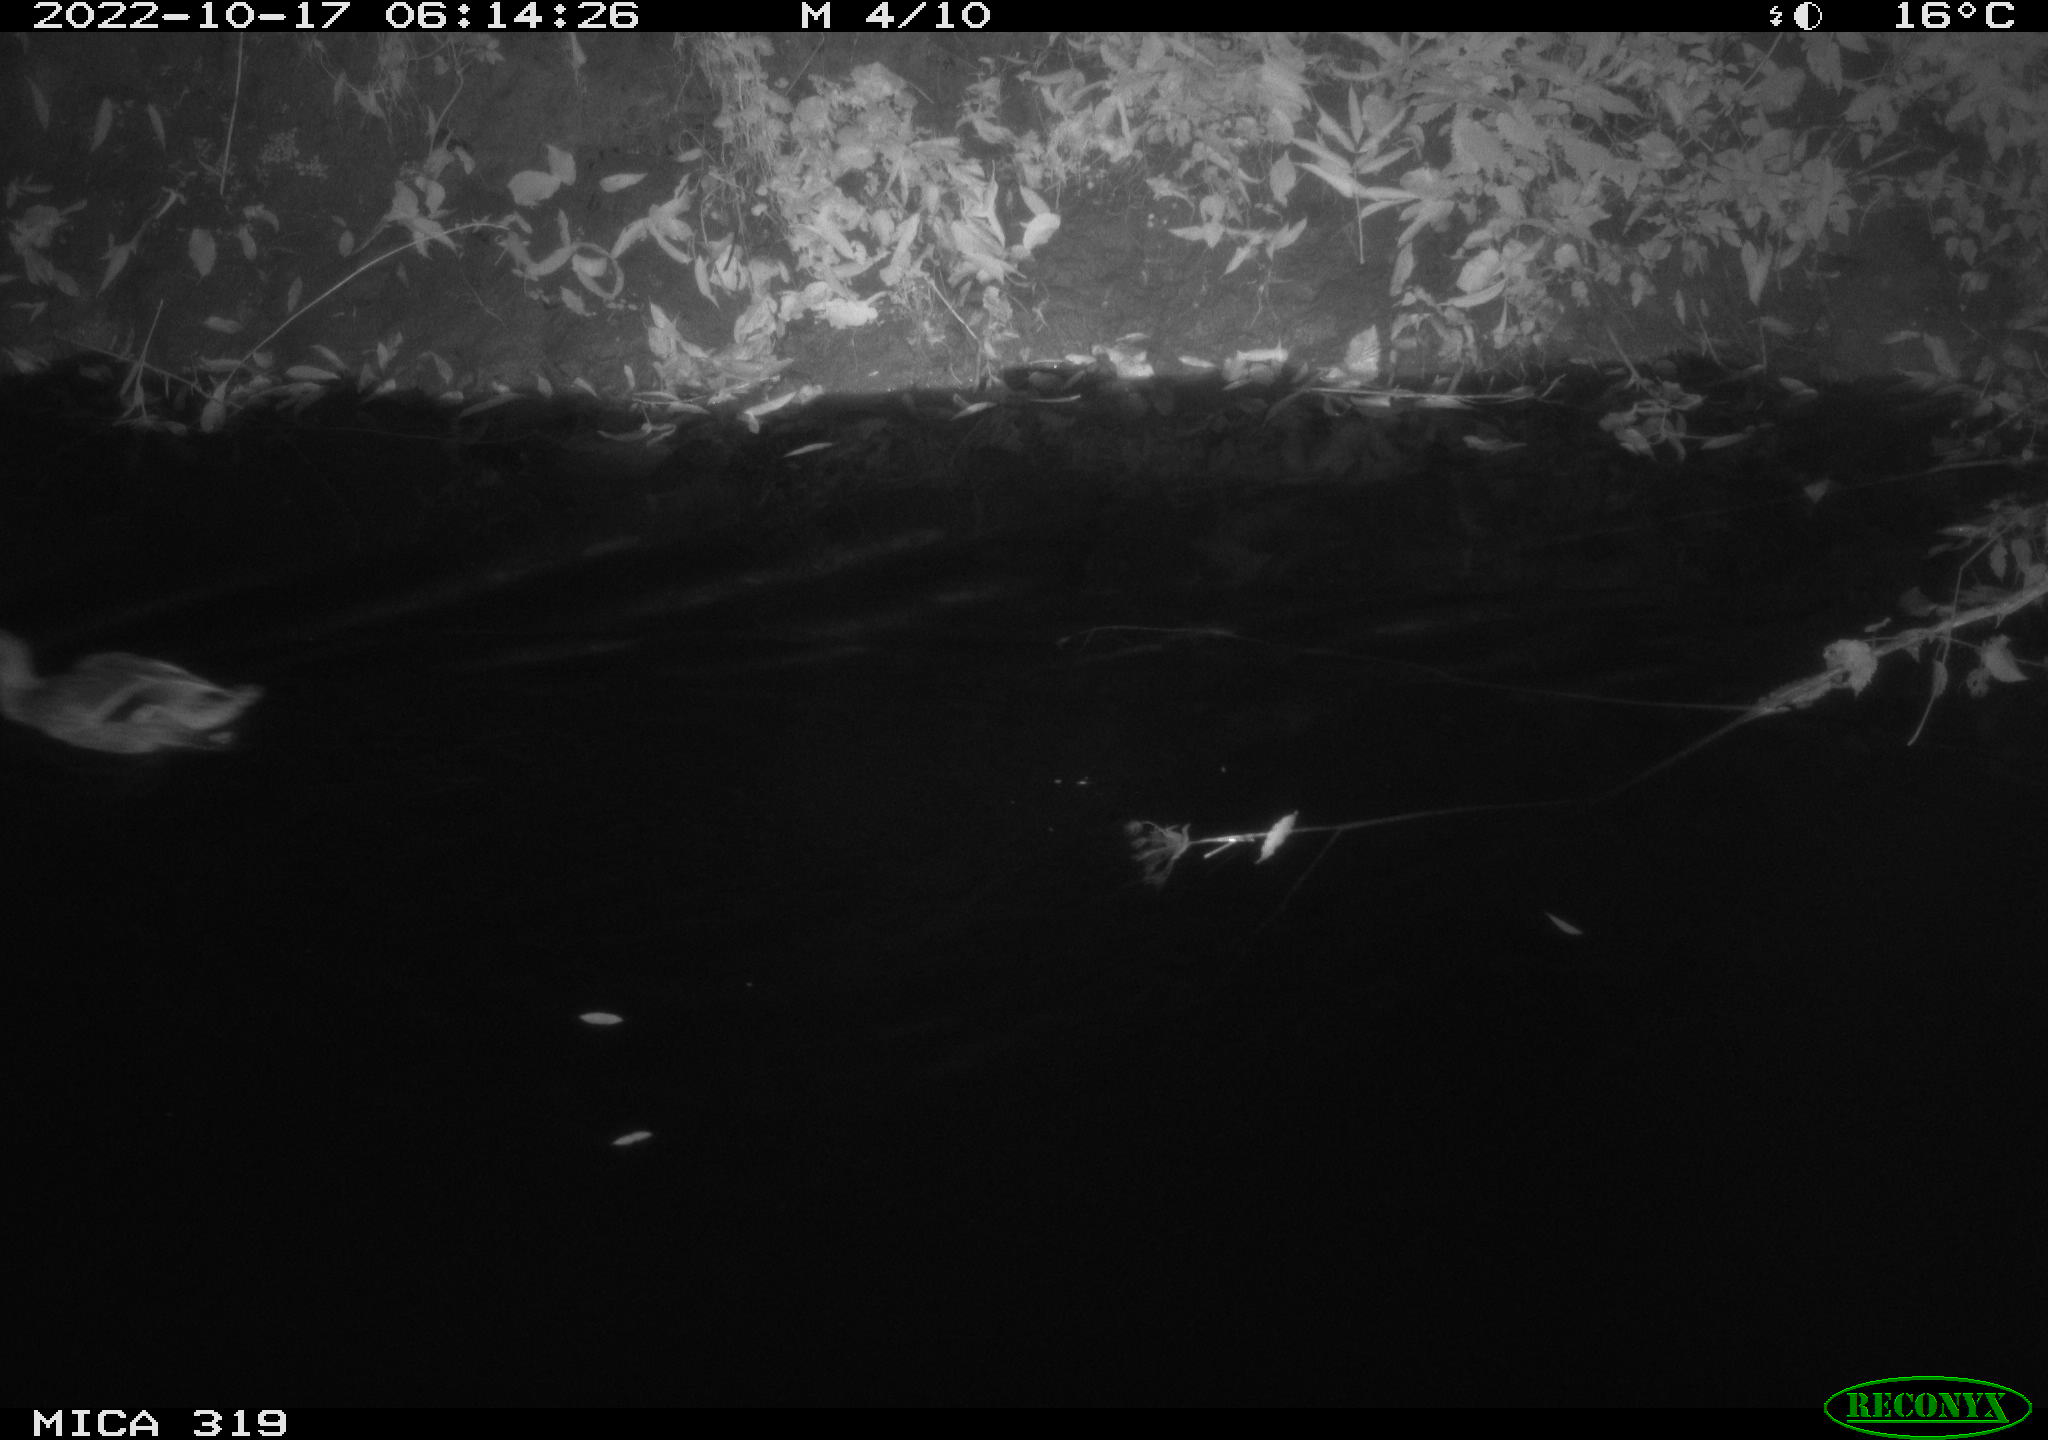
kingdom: Animalia
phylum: Chordata
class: Aves
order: Anseriformes
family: Anatidae
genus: Anas
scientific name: Anas
